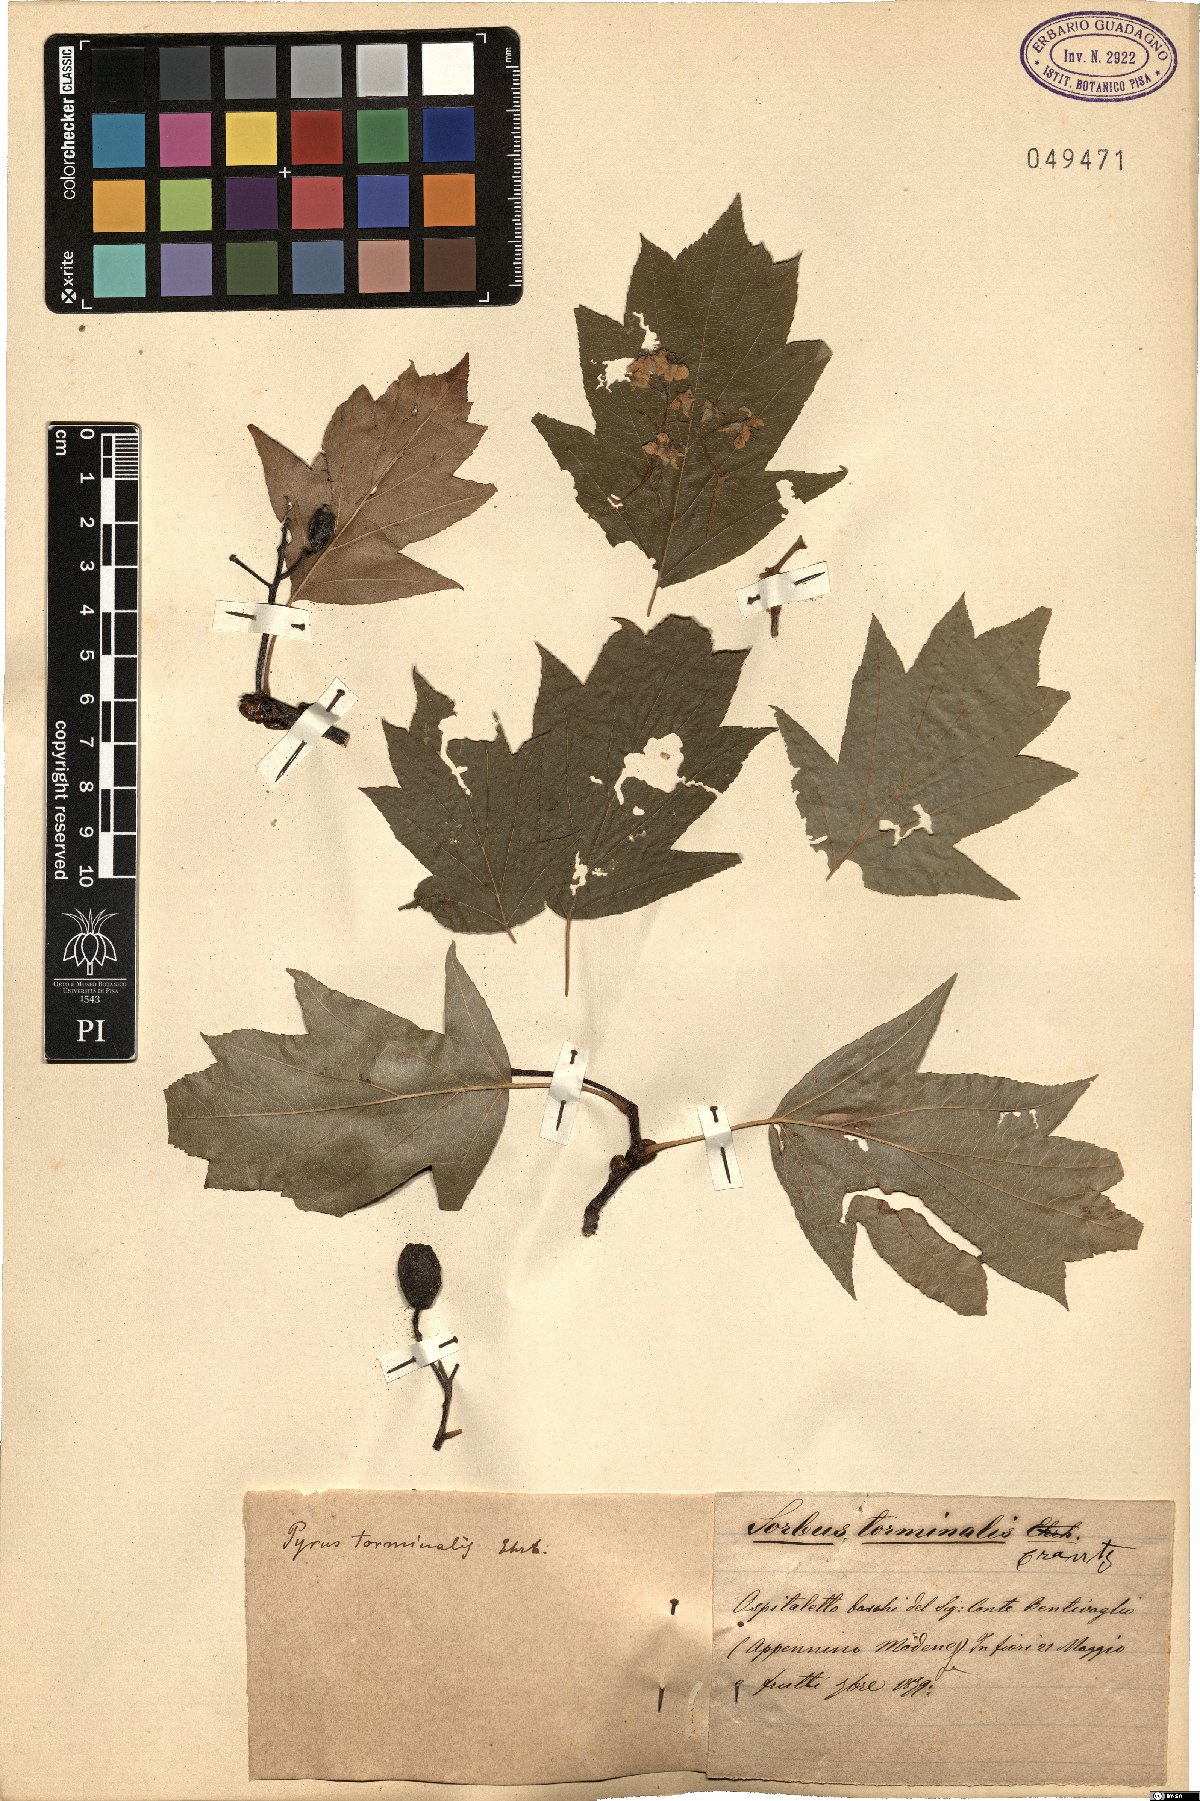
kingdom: Plantae
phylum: Tracheophyta
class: Magnoliopsida
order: Rosales
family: Rosaceae
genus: Torminalis
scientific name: Torminalis glaberrima
